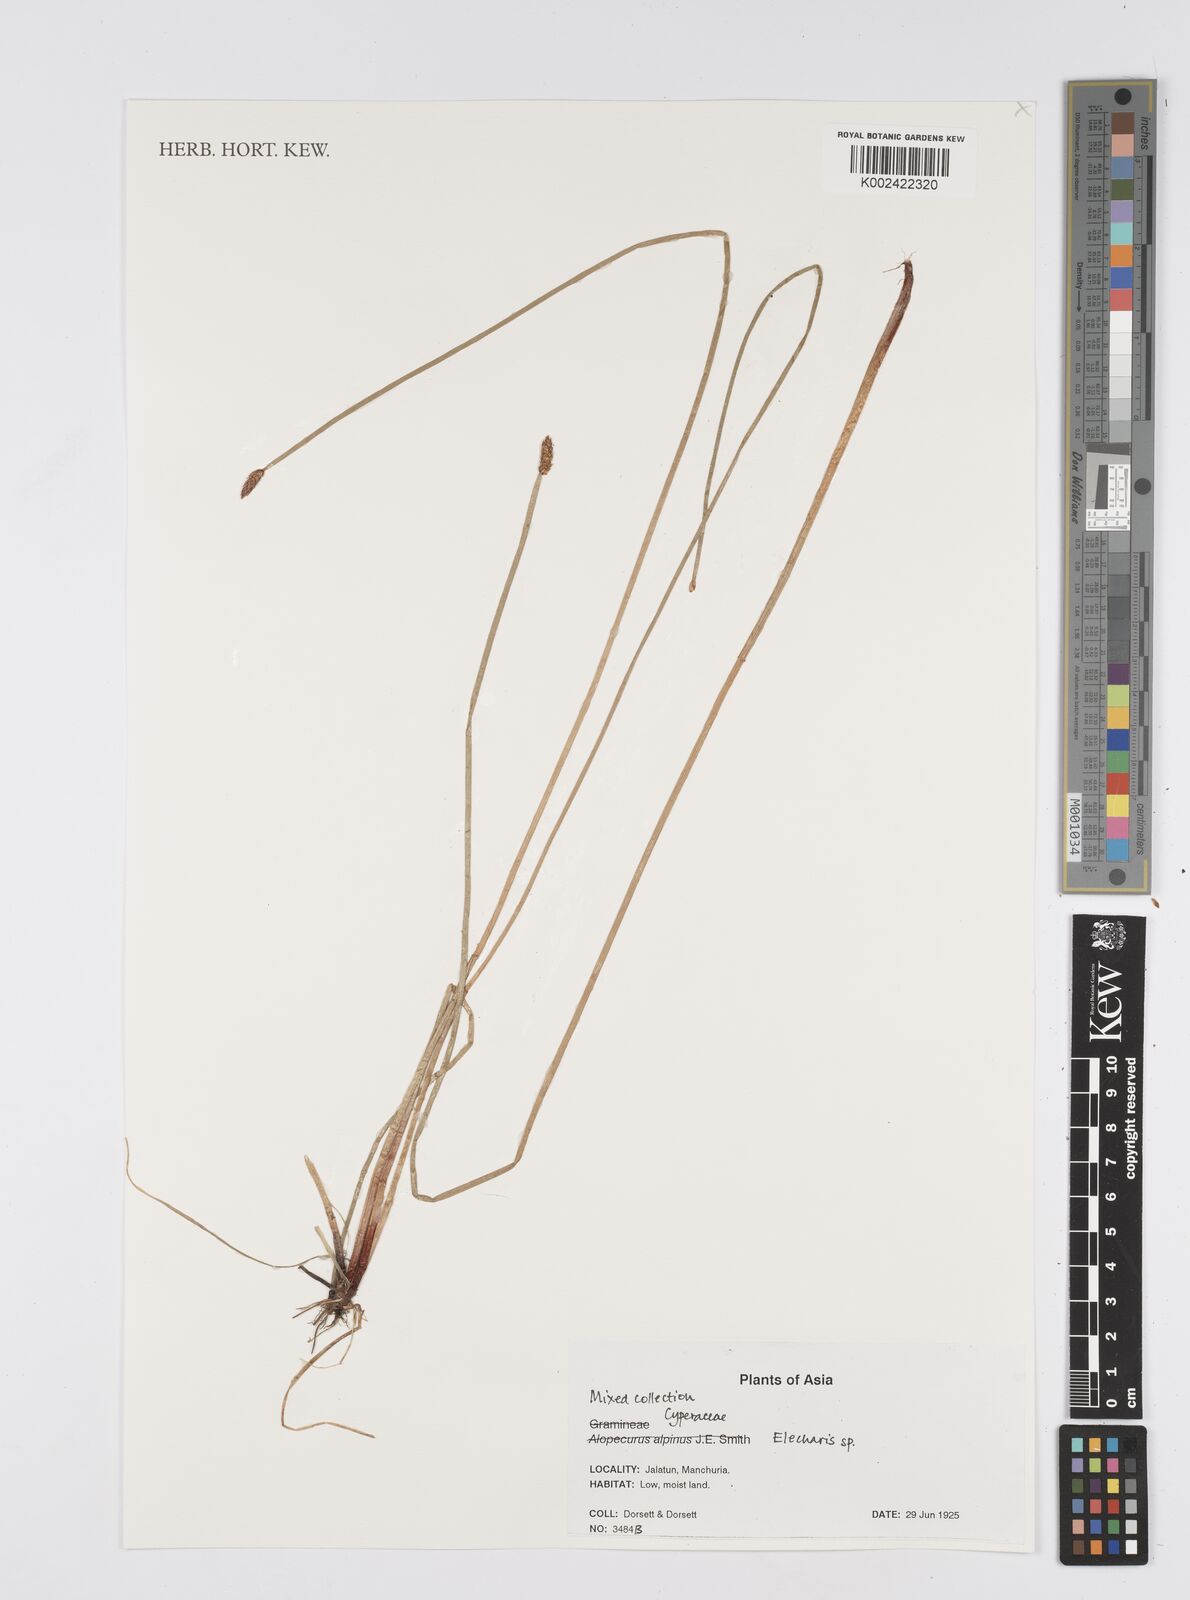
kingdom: Plantae
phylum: Tracheophyta
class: Liliopsida
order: Poales
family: Cyperaceae
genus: Eleocharis
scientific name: Eleocharis
